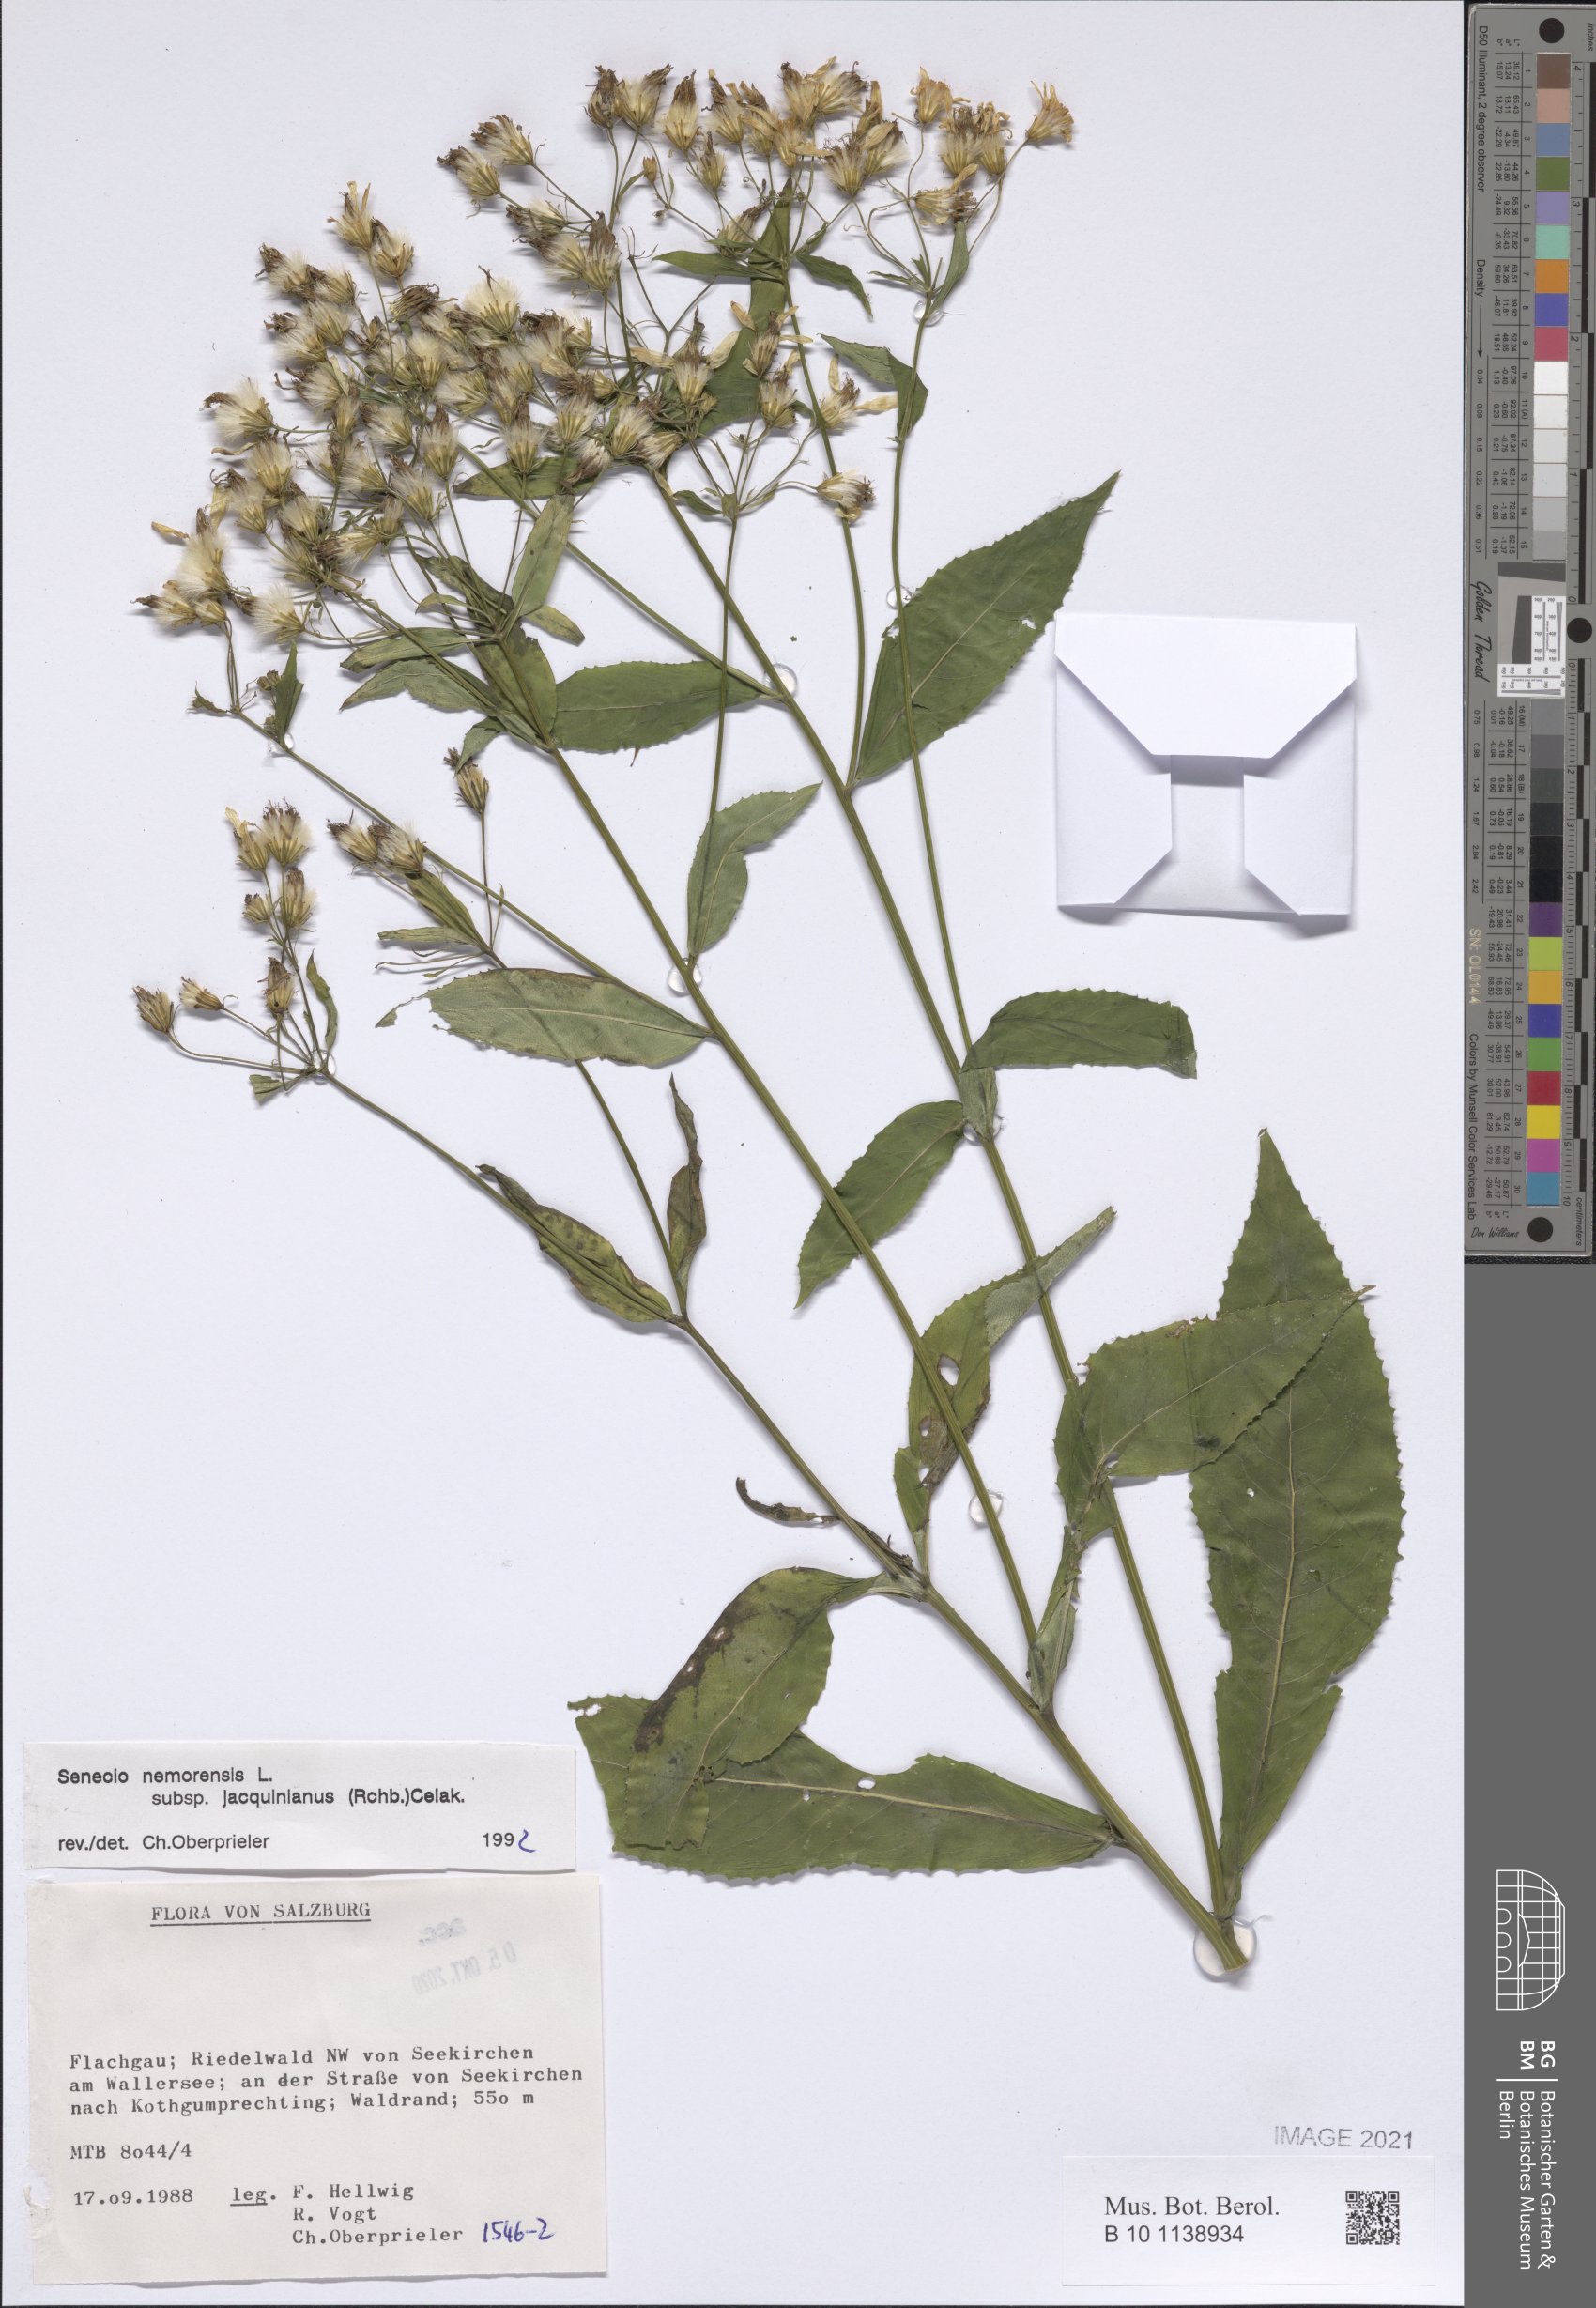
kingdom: Plantae
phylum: Tracheophyta
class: Magnoliopsida
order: Asterales
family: Asteraceae
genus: Senecio
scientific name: Senecio germanicus
